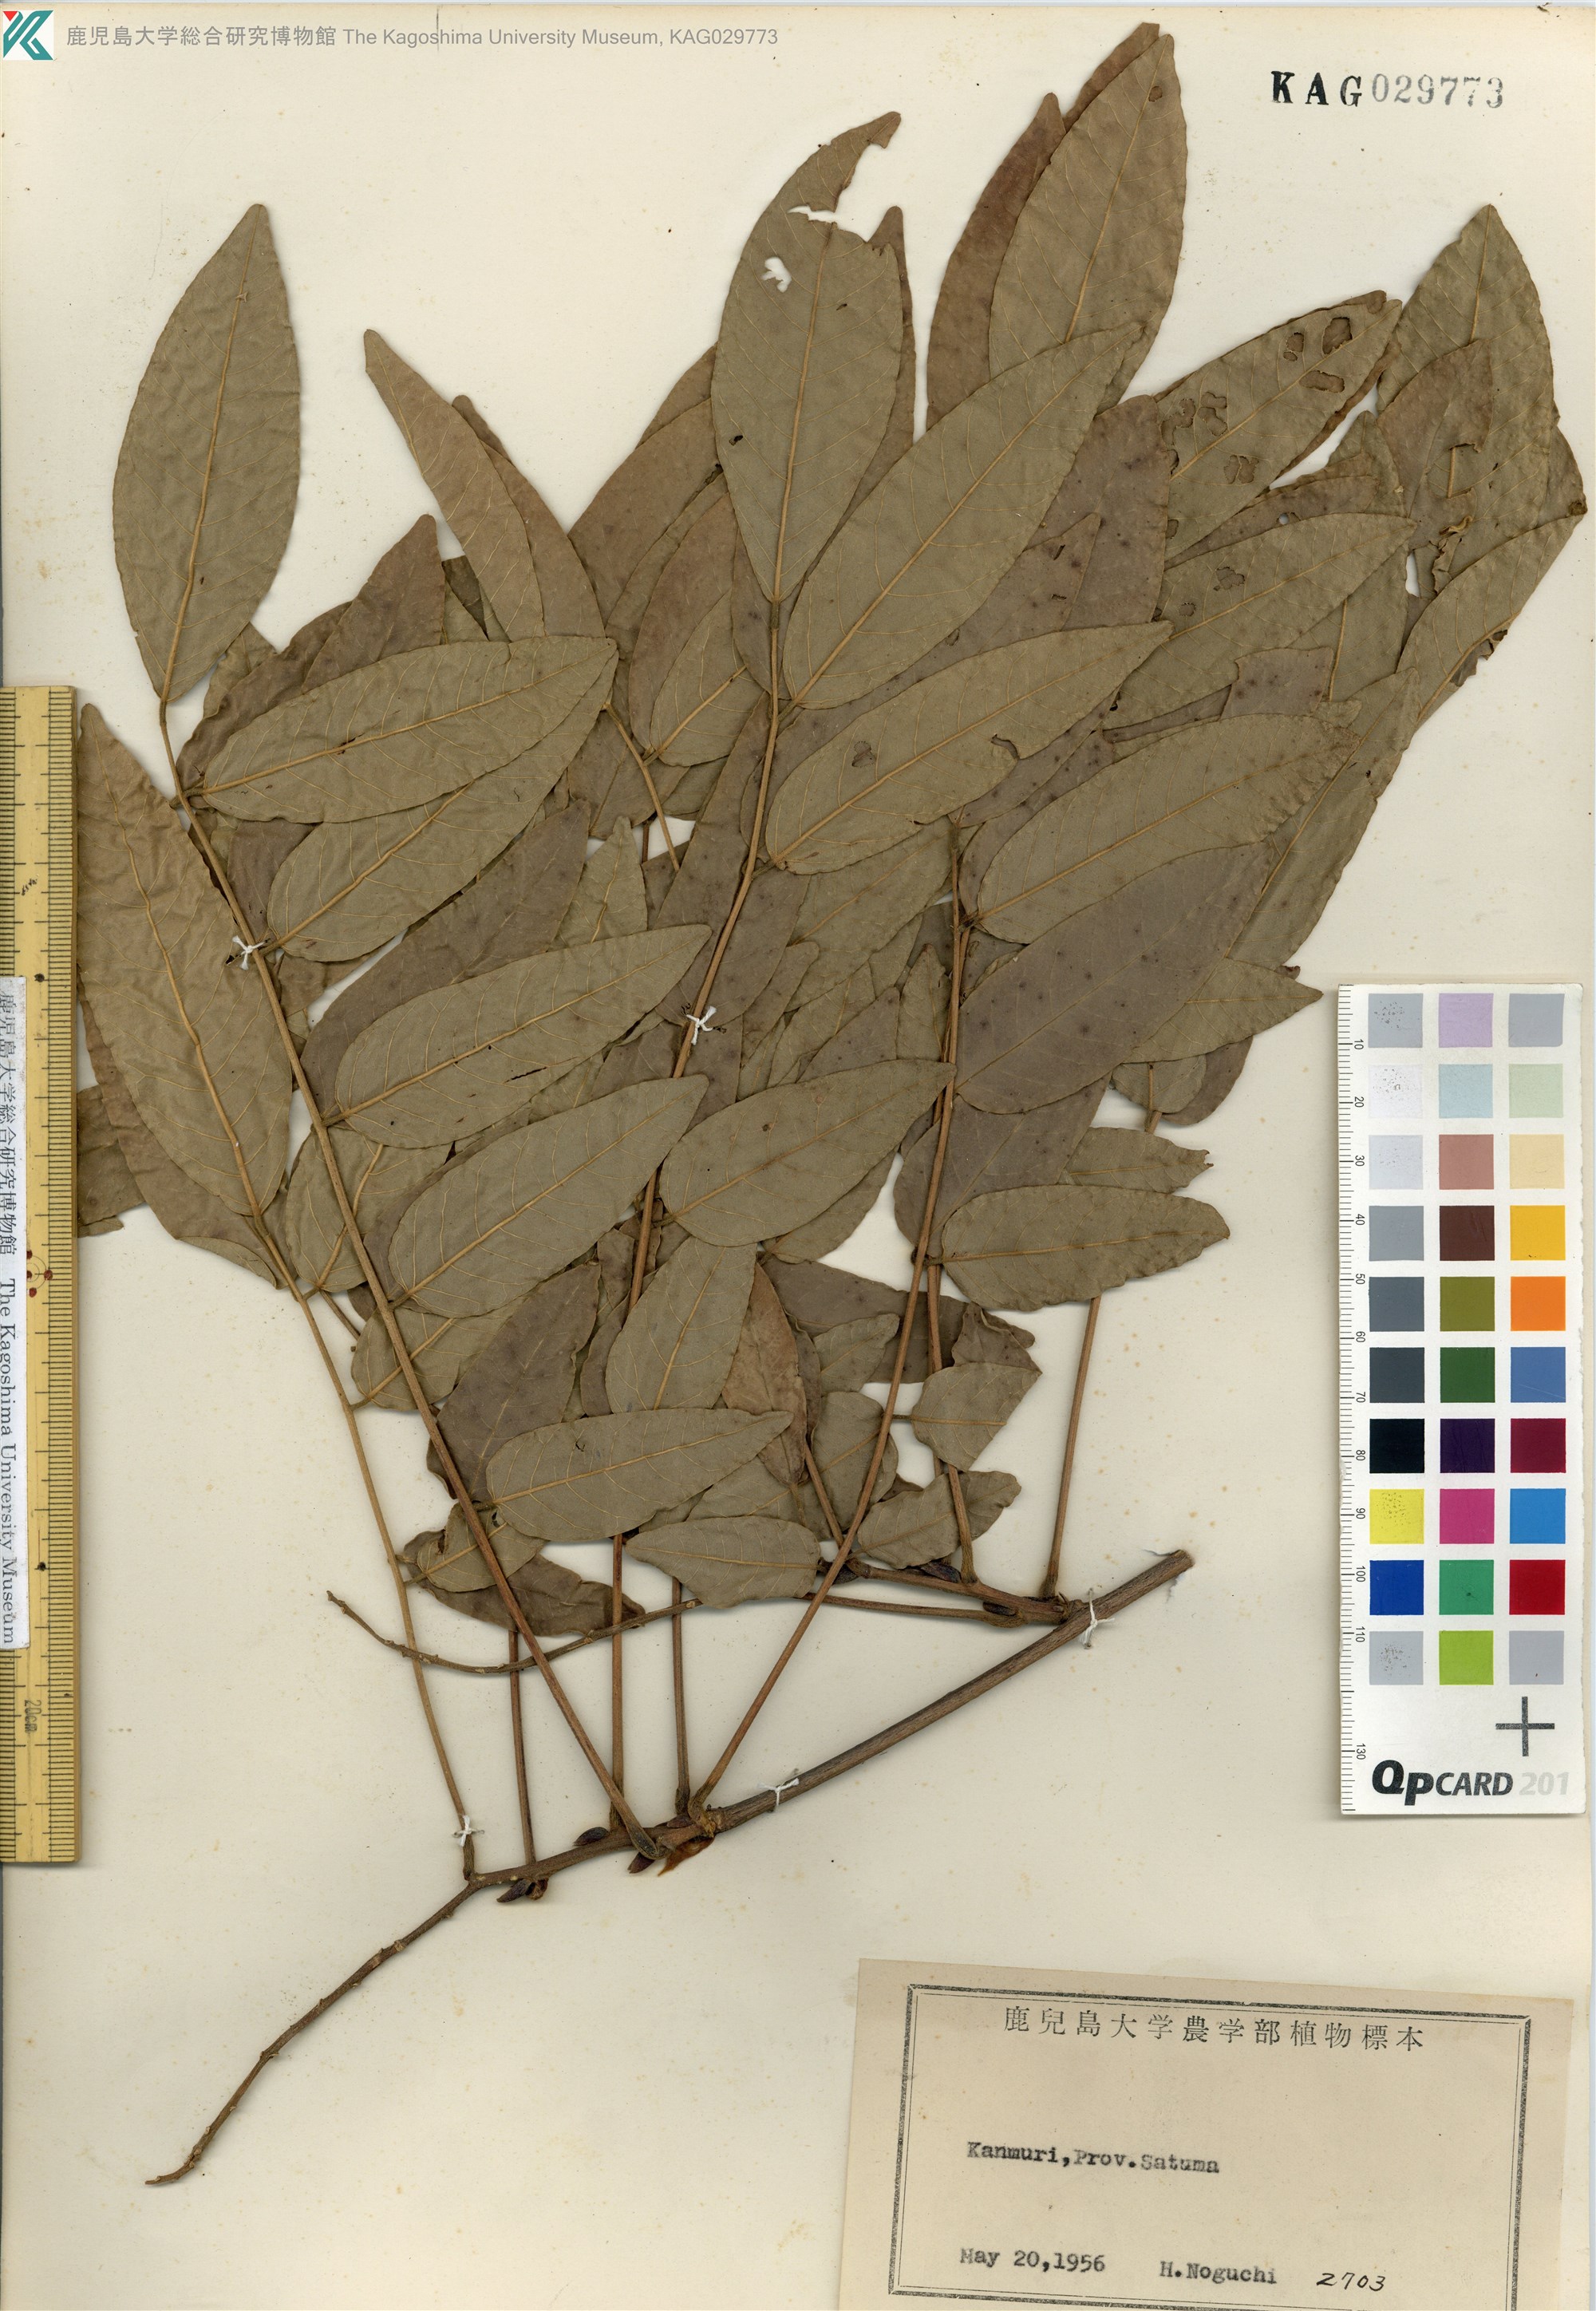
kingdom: Plantae
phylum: Tracheophyta
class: Magnoliopsida
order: Fabales
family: Fabaceae
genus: Wisteria
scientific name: Wisteria brachybotrys
